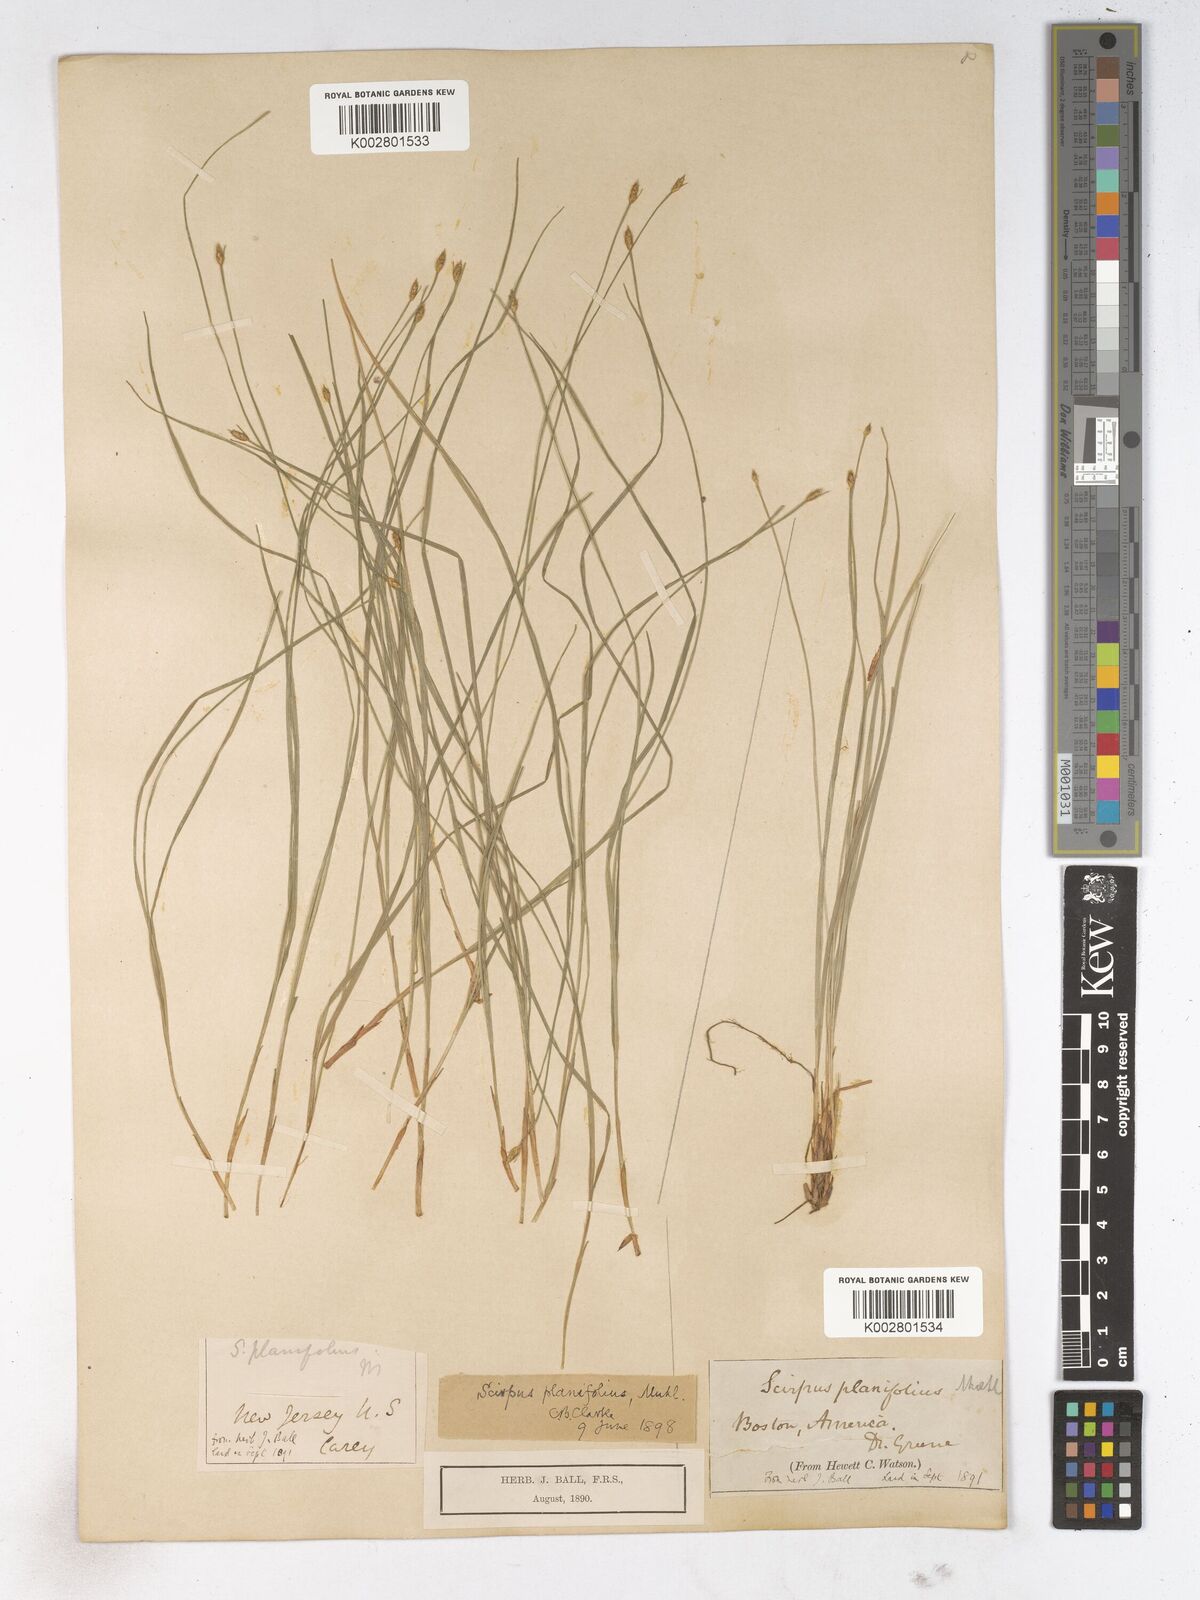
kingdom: Plantae
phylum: Tracheophyta
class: Liliopsida
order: Poales
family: Cyperaceae
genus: Trichophorum
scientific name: Trichophorum planifolium
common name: Bashful bulrush
